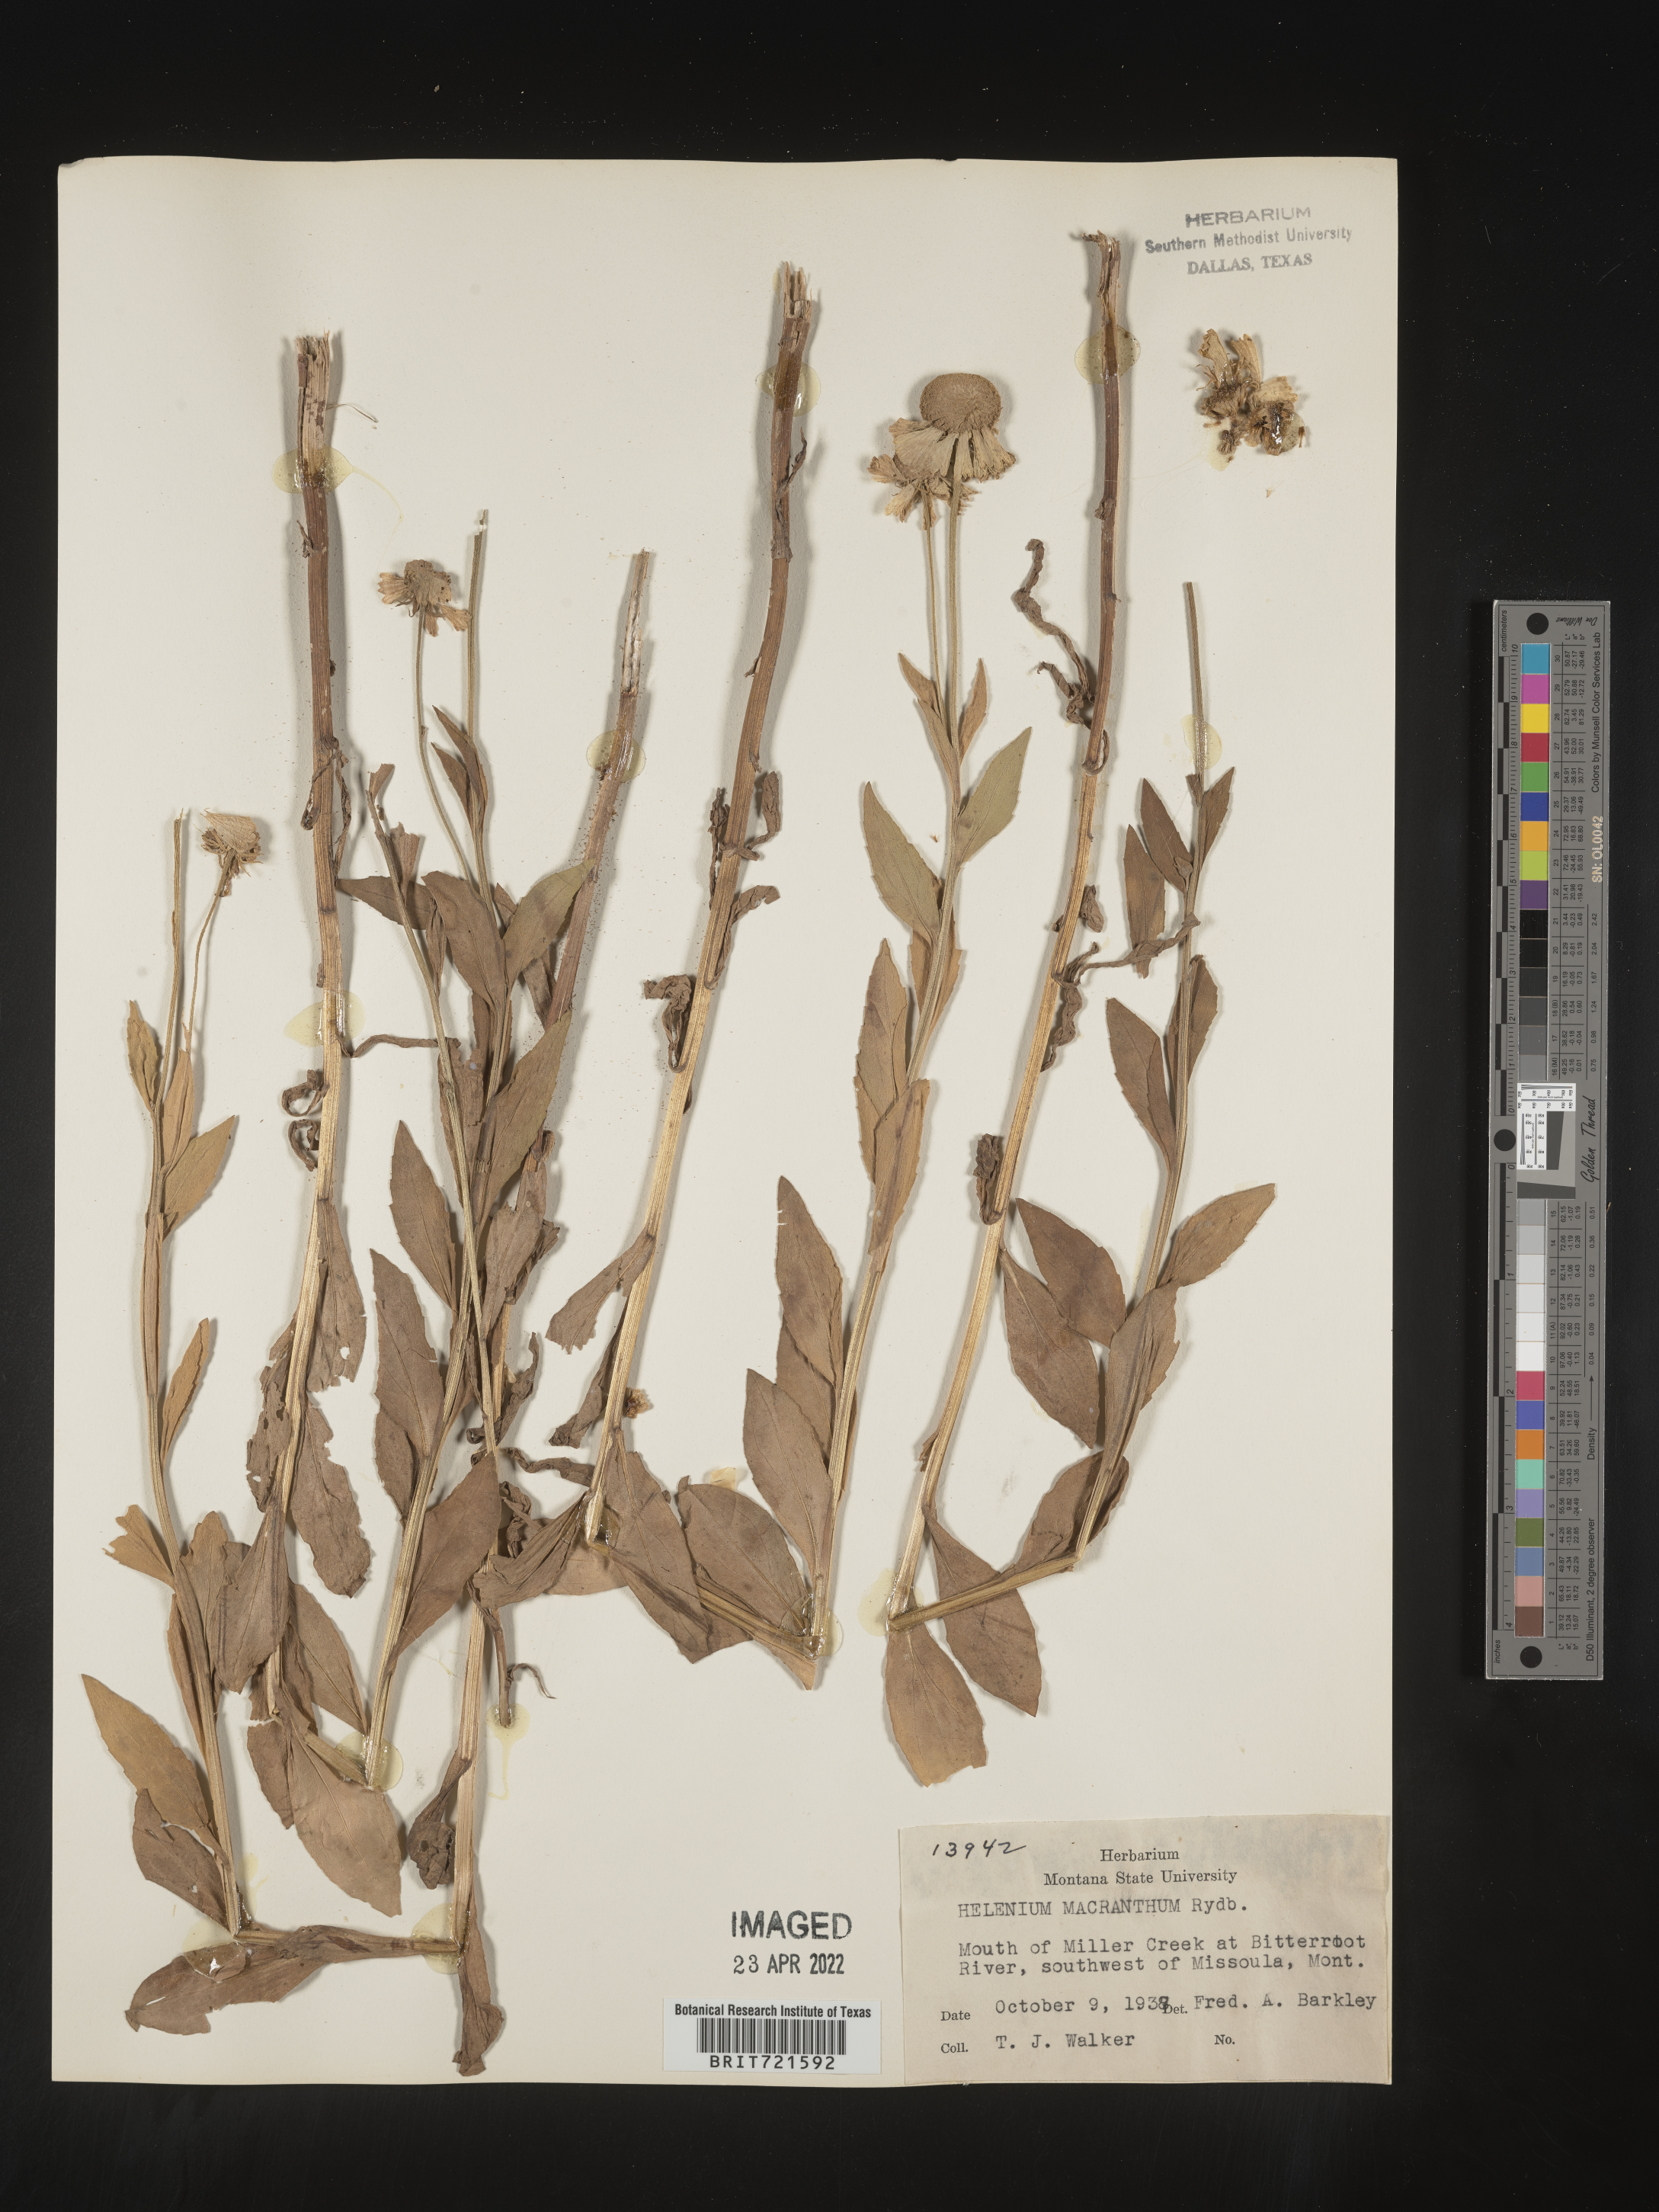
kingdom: Plantae
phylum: Tracheophyta
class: Magnoliopsida
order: Asterales
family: Asteraceae
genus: Helenium
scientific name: Helenium autumnale
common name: Sneezeweed
